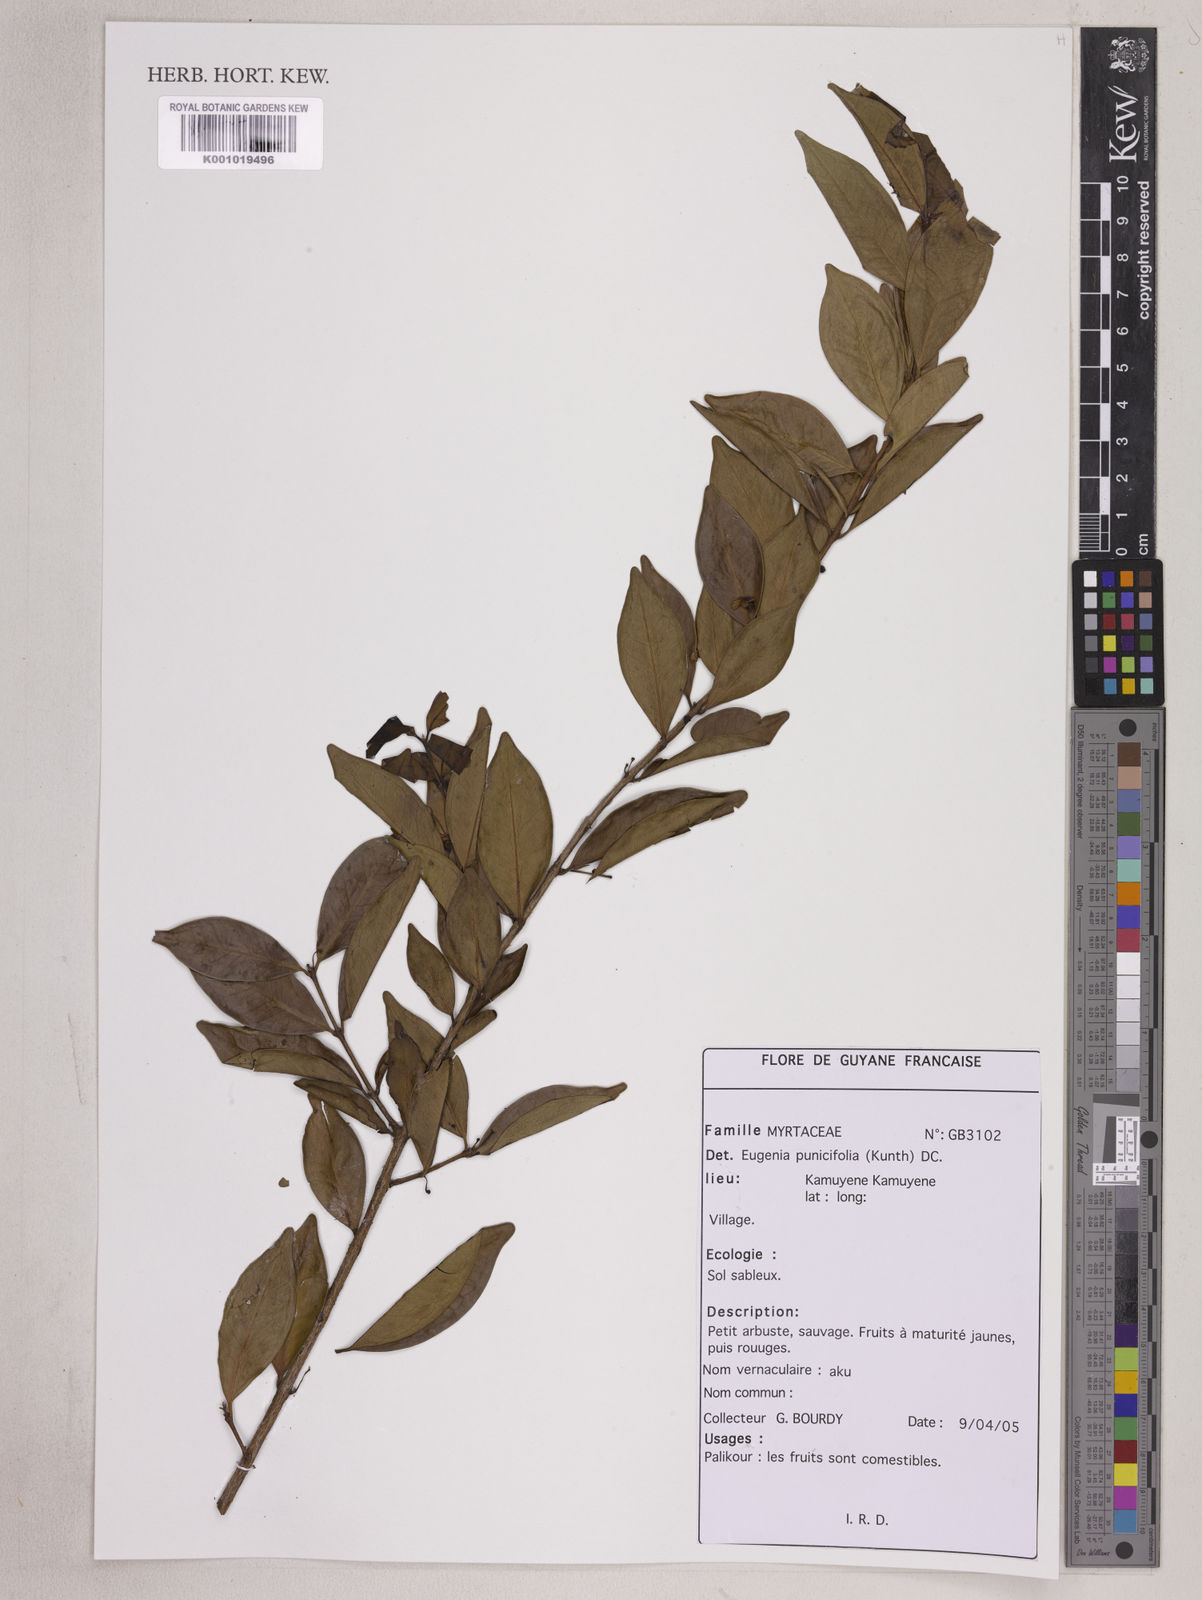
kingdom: Plantae
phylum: Tracheophyta
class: Magnoliopsida
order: Myrtales
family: Myrtaceae
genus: Eugenia
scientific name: Eugenia punicifolia
